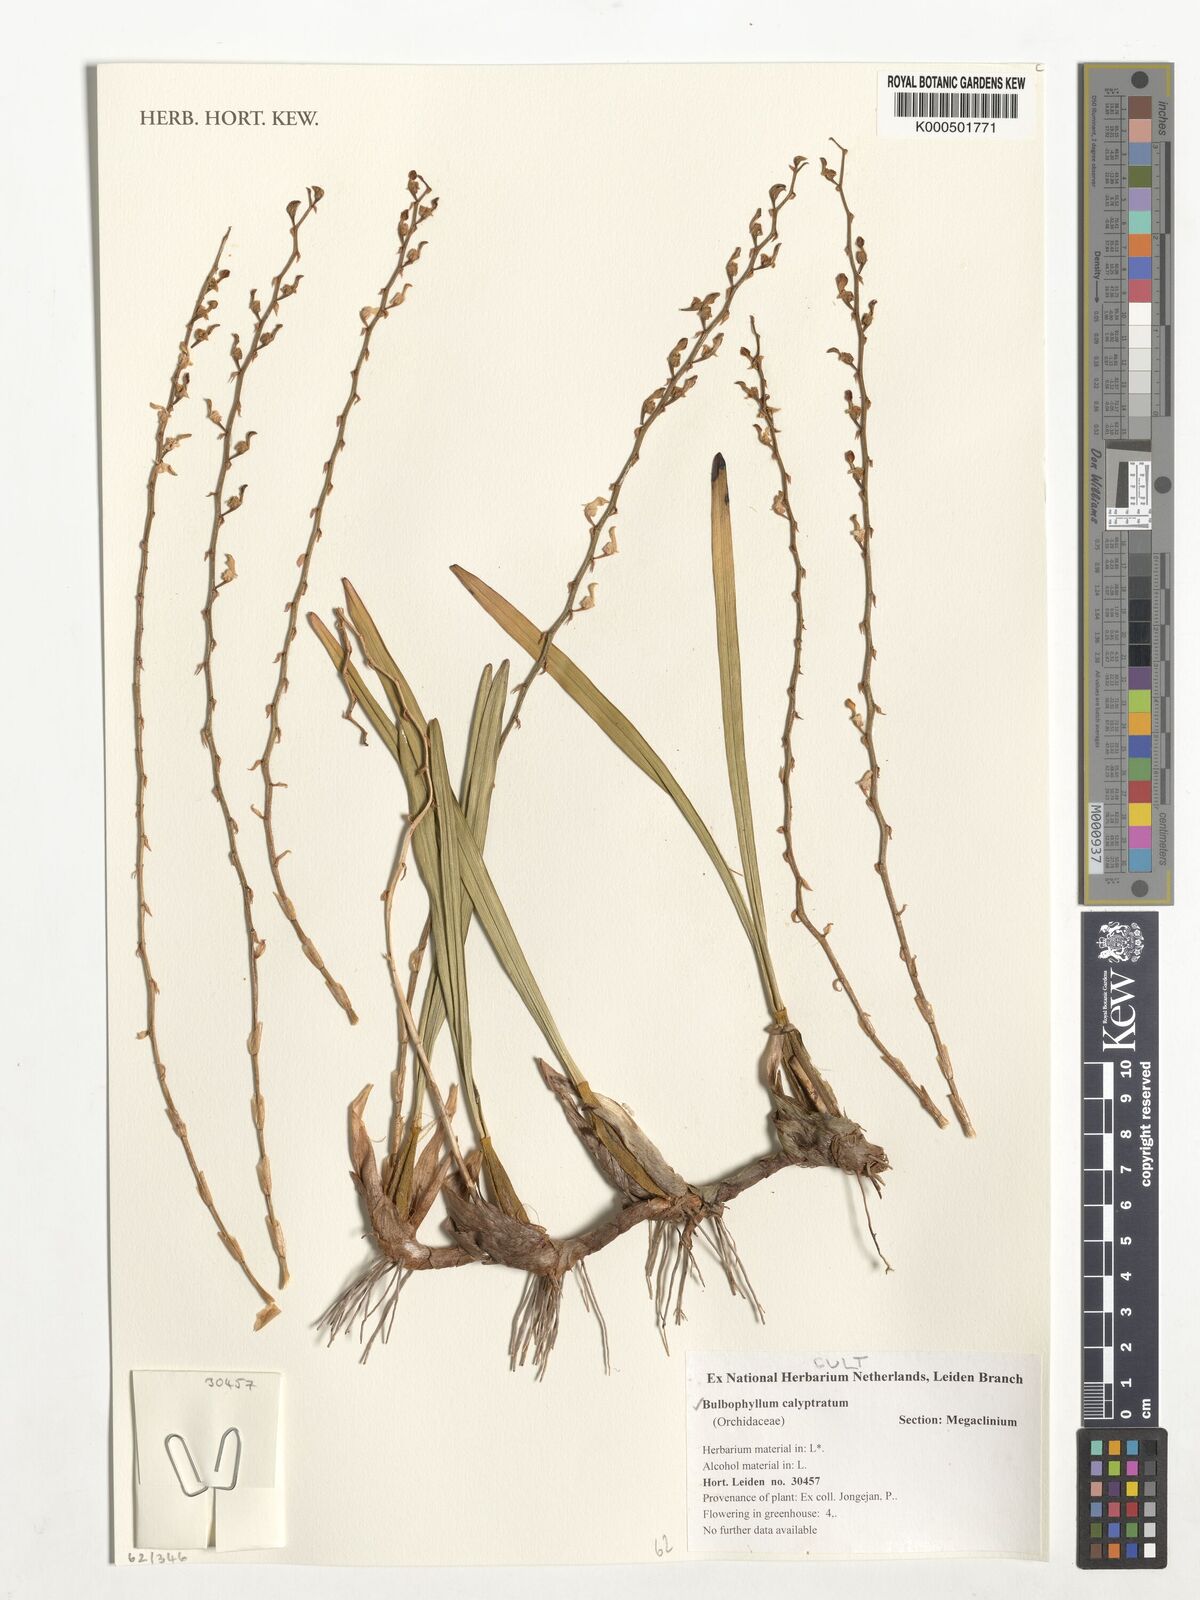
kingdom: Plantae
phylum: Tracheophyta
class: Liliopsida
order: Asparagales
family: Orchidaceae
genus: Bulbophyllum
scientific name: Bulbophyllum calyptratum
